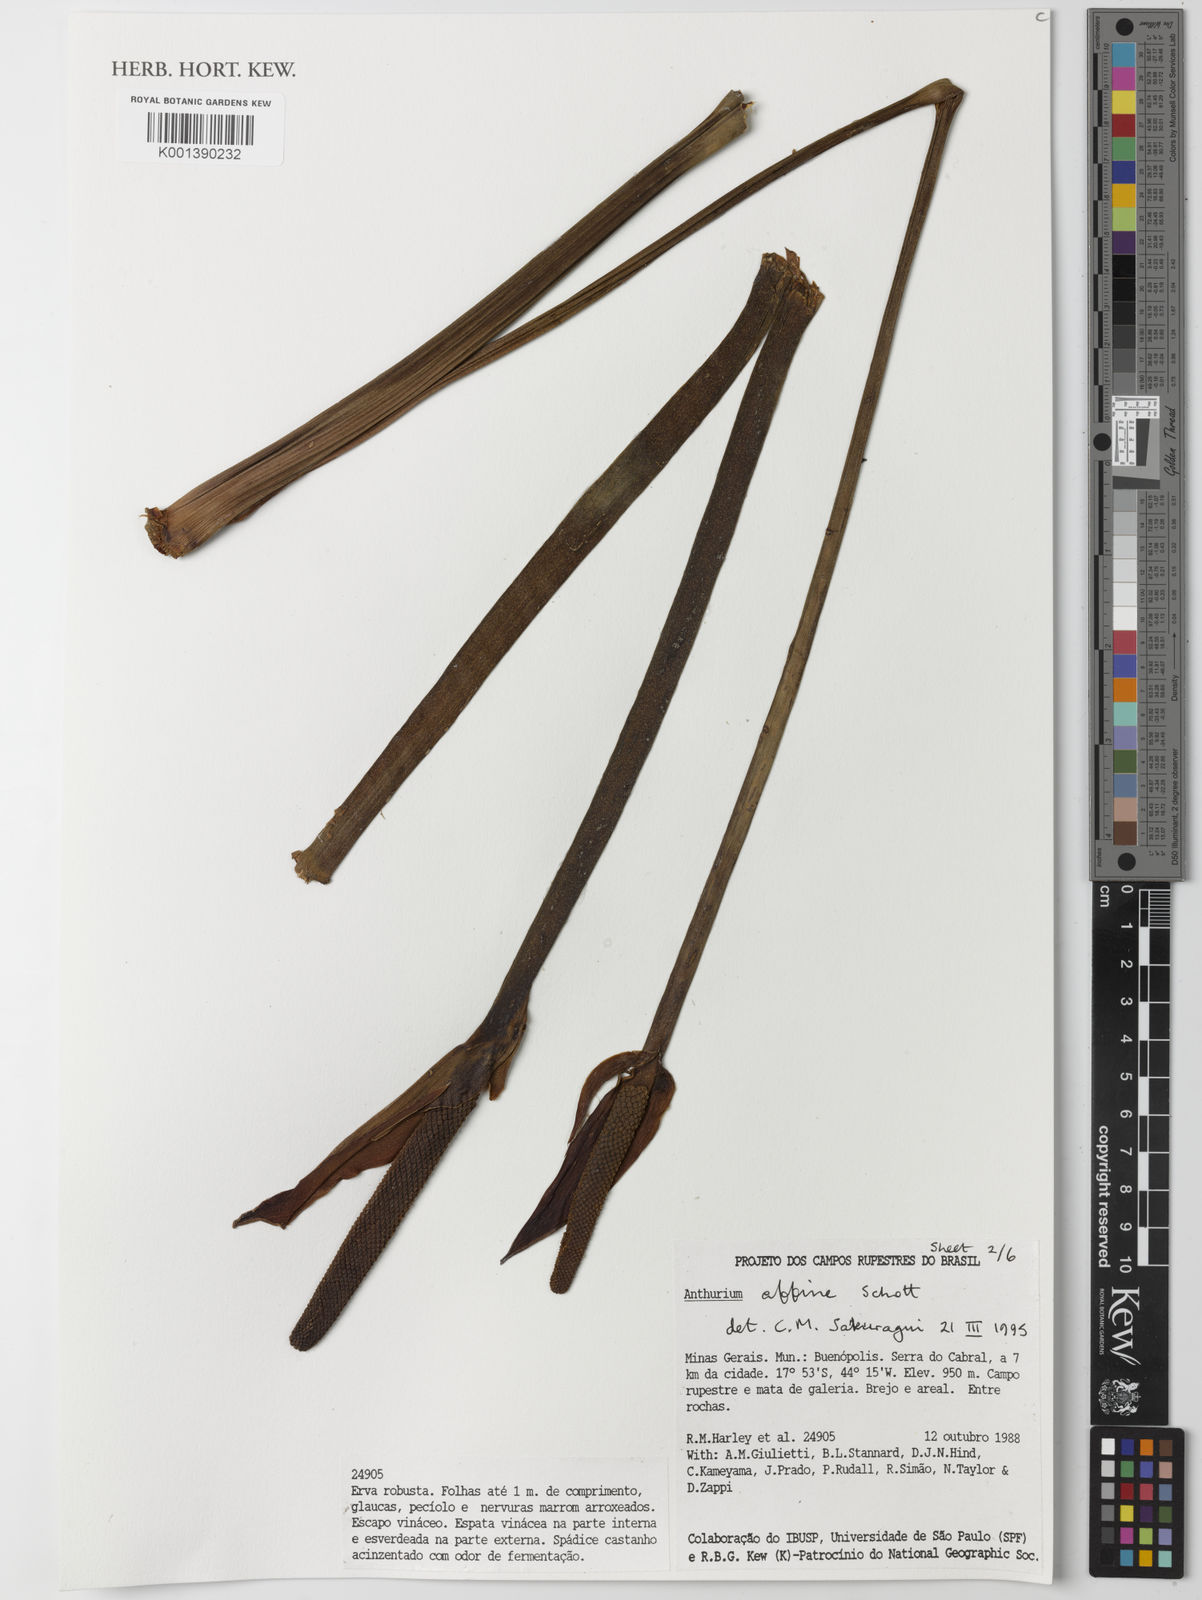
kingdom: Plantae
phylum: Tracheophyta
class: Liliopsida
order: Alismatales
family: Araceae
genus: Anthurium
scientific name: Anthurium affine
